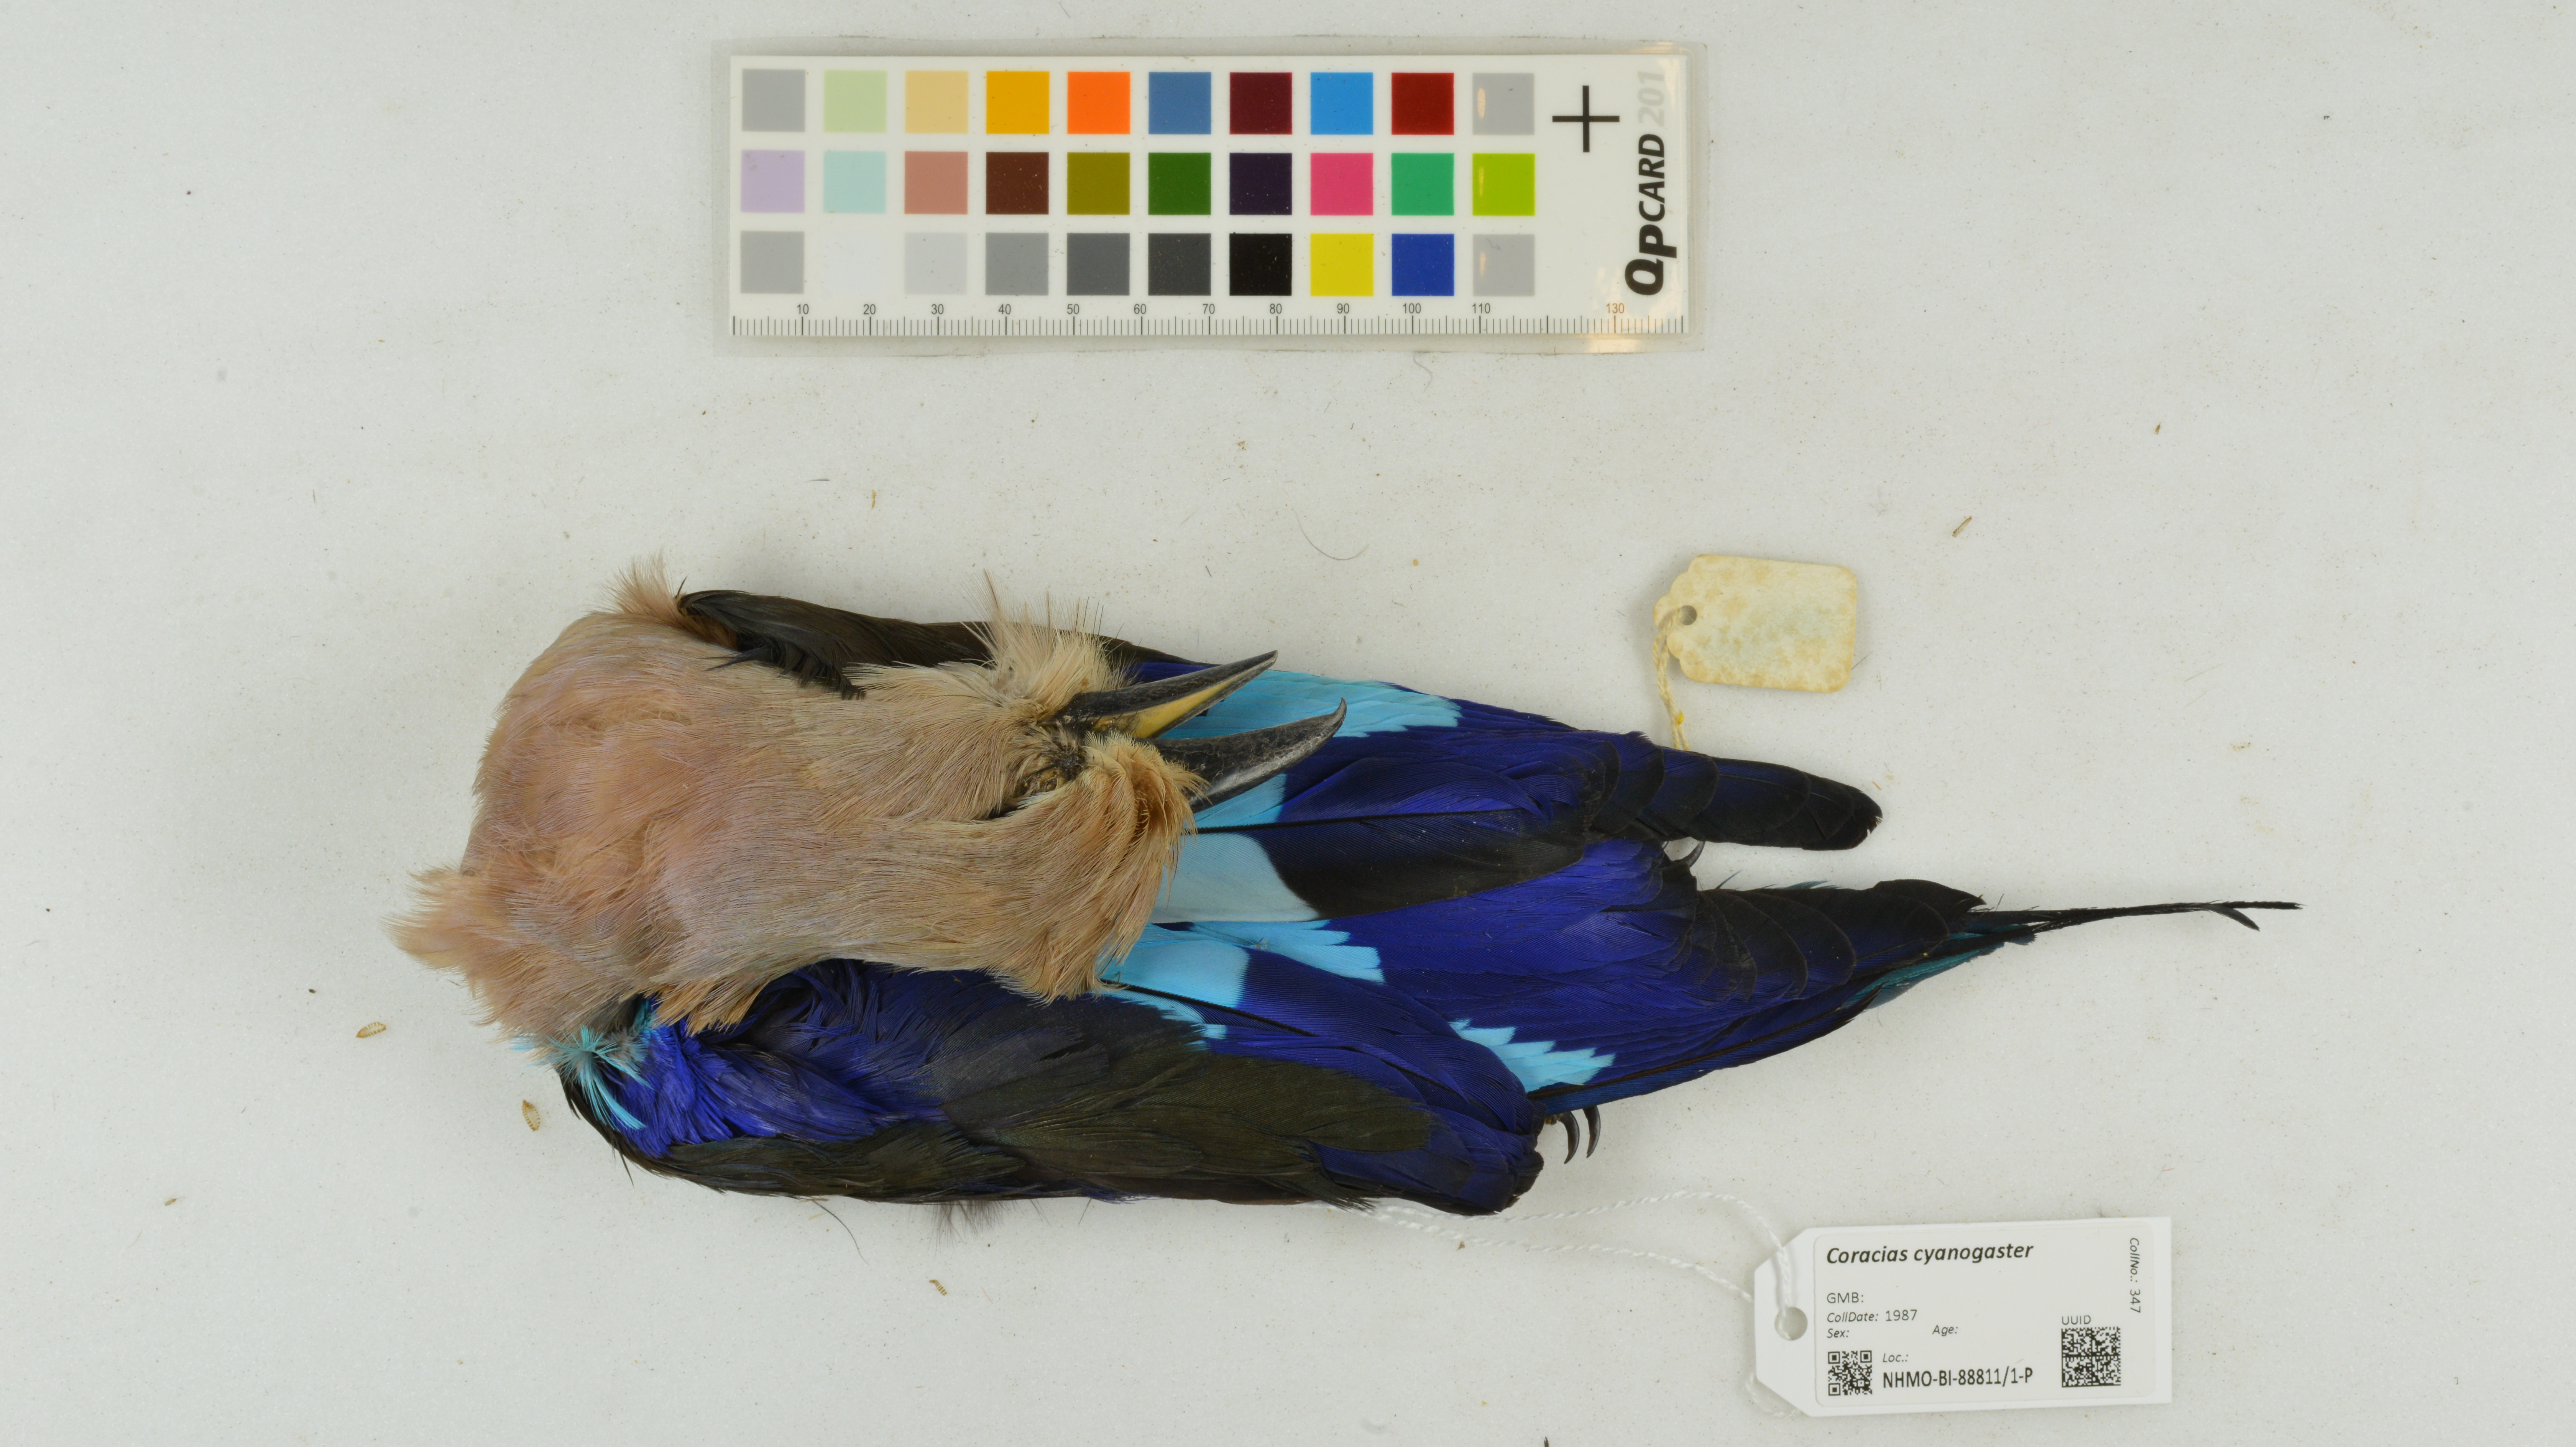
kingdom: Animalia
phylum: Chordata
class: Aves
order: Coraciiformes
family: Coraciidae
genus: Coracias
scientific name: Coracias cyanogaster
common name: Blue-bellied roller
